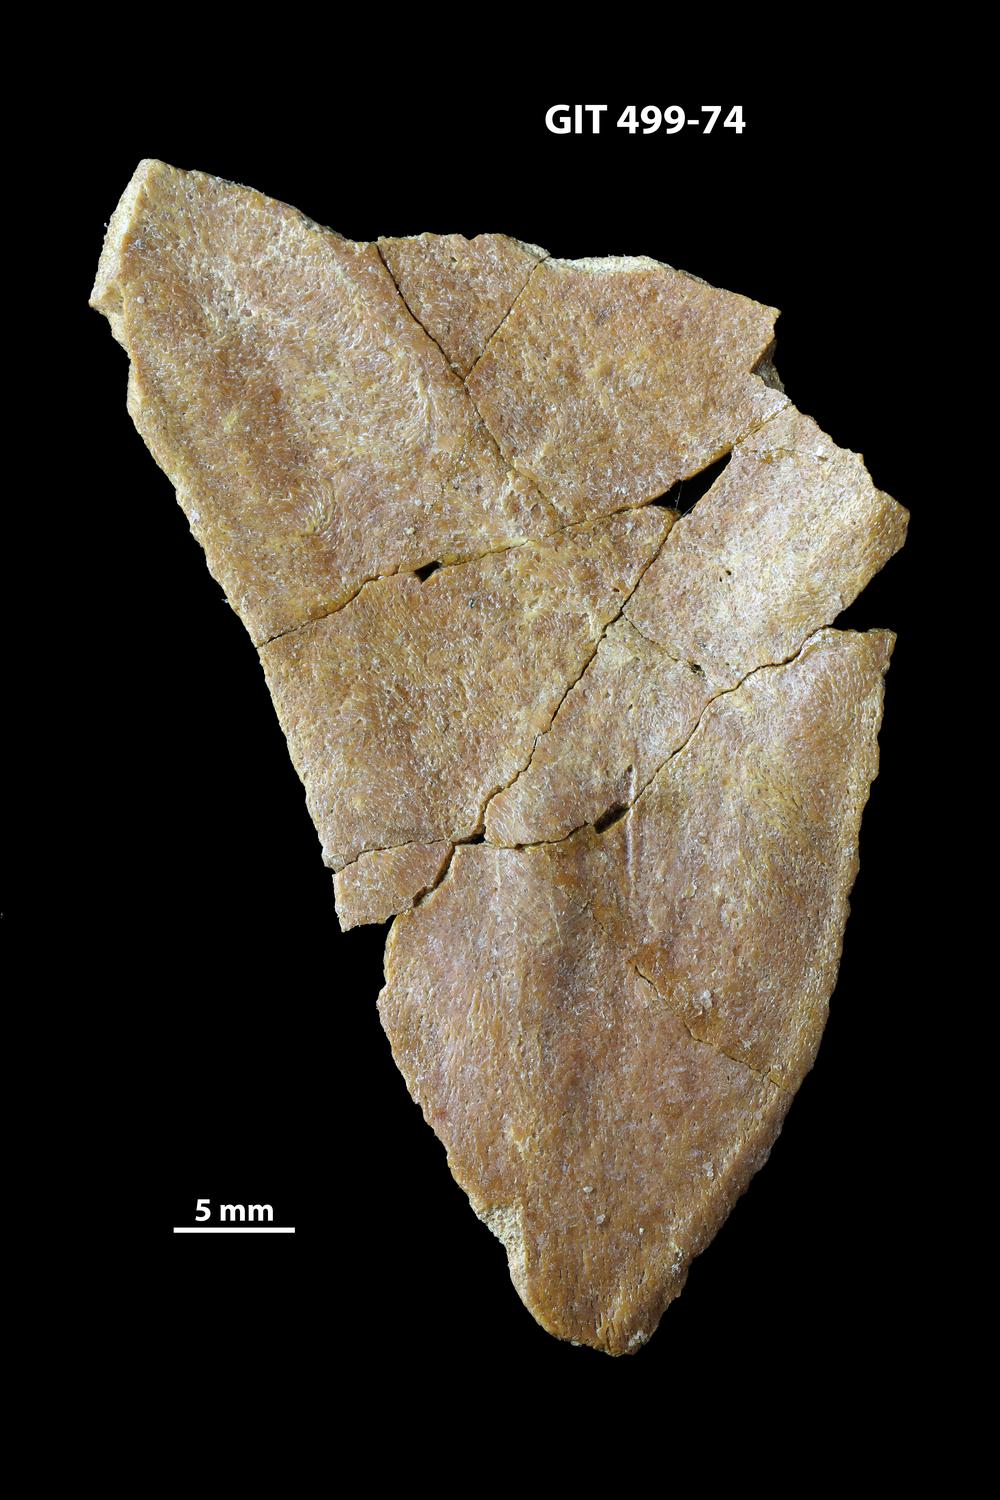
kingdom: Animalia
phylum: Chordata
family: Holoptychiidae
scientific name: Holoptychiidae
